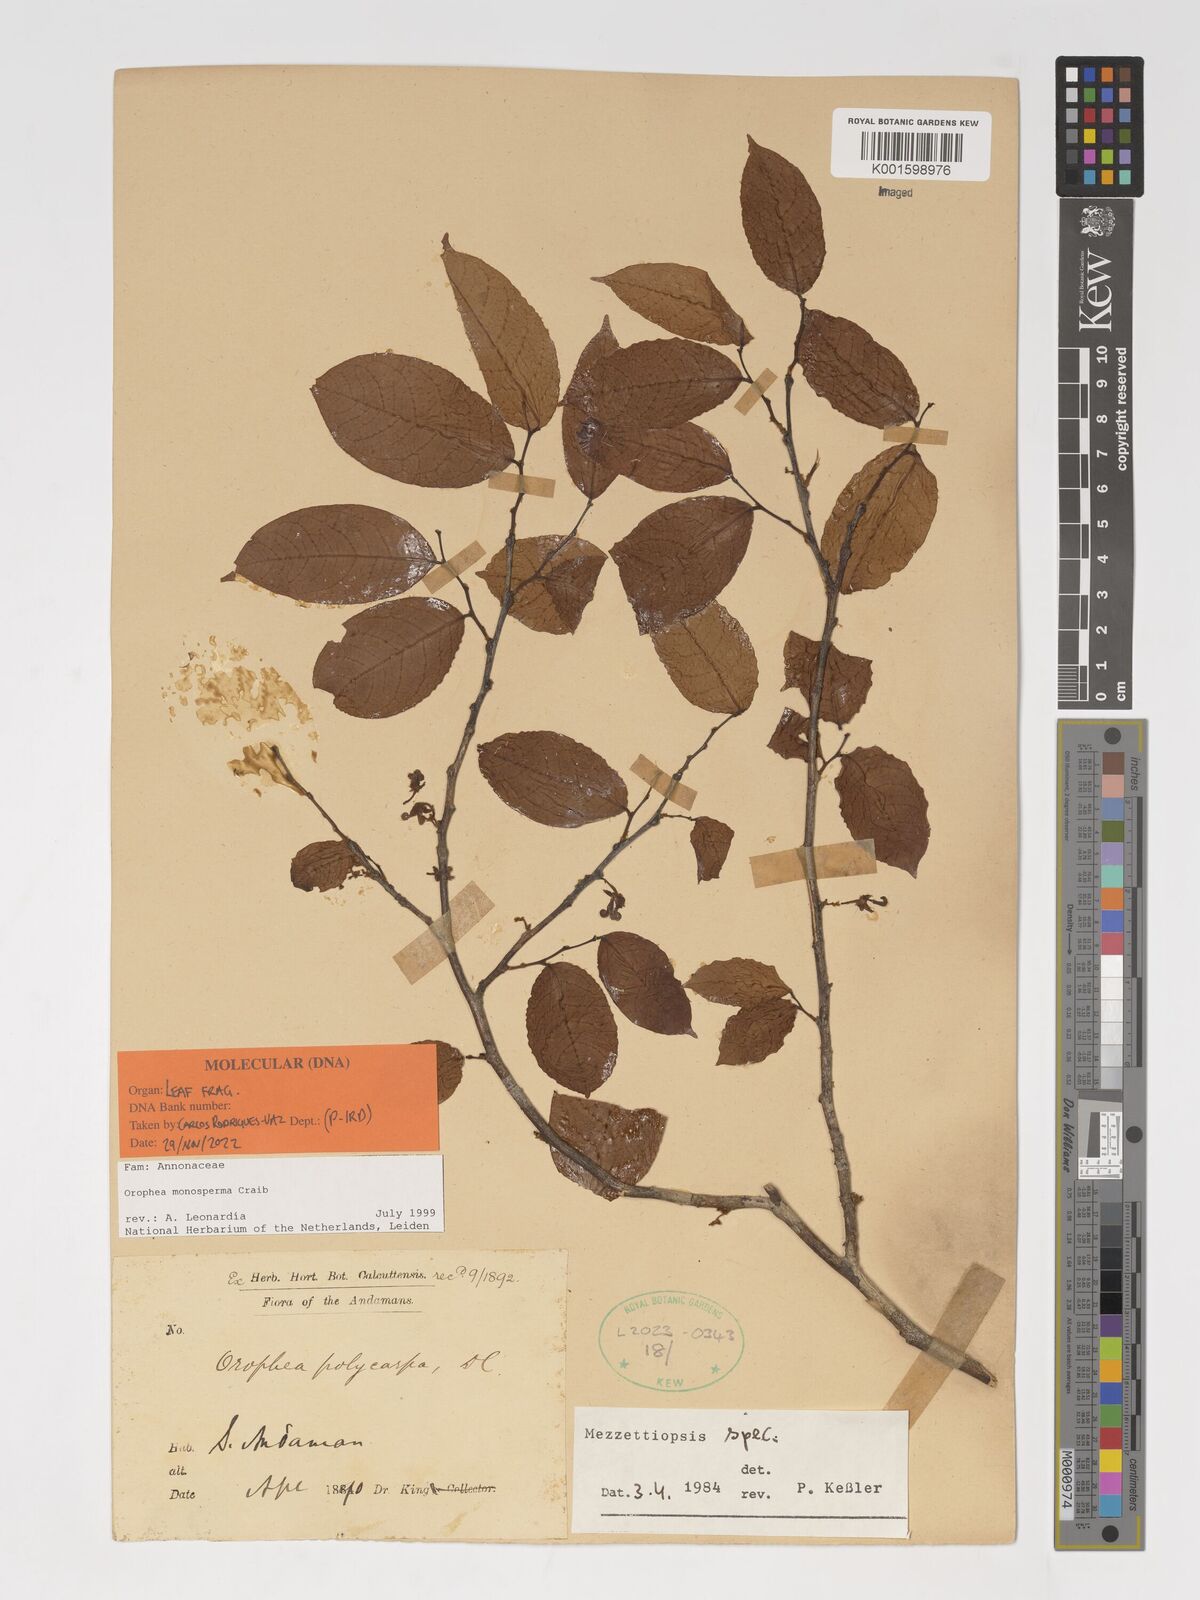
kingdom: Plantae
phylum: Tracheophyta
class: Magnoliopsida
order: Magnoliales
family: Annonaceae
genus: Orophea
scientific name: Orophea monosperma
